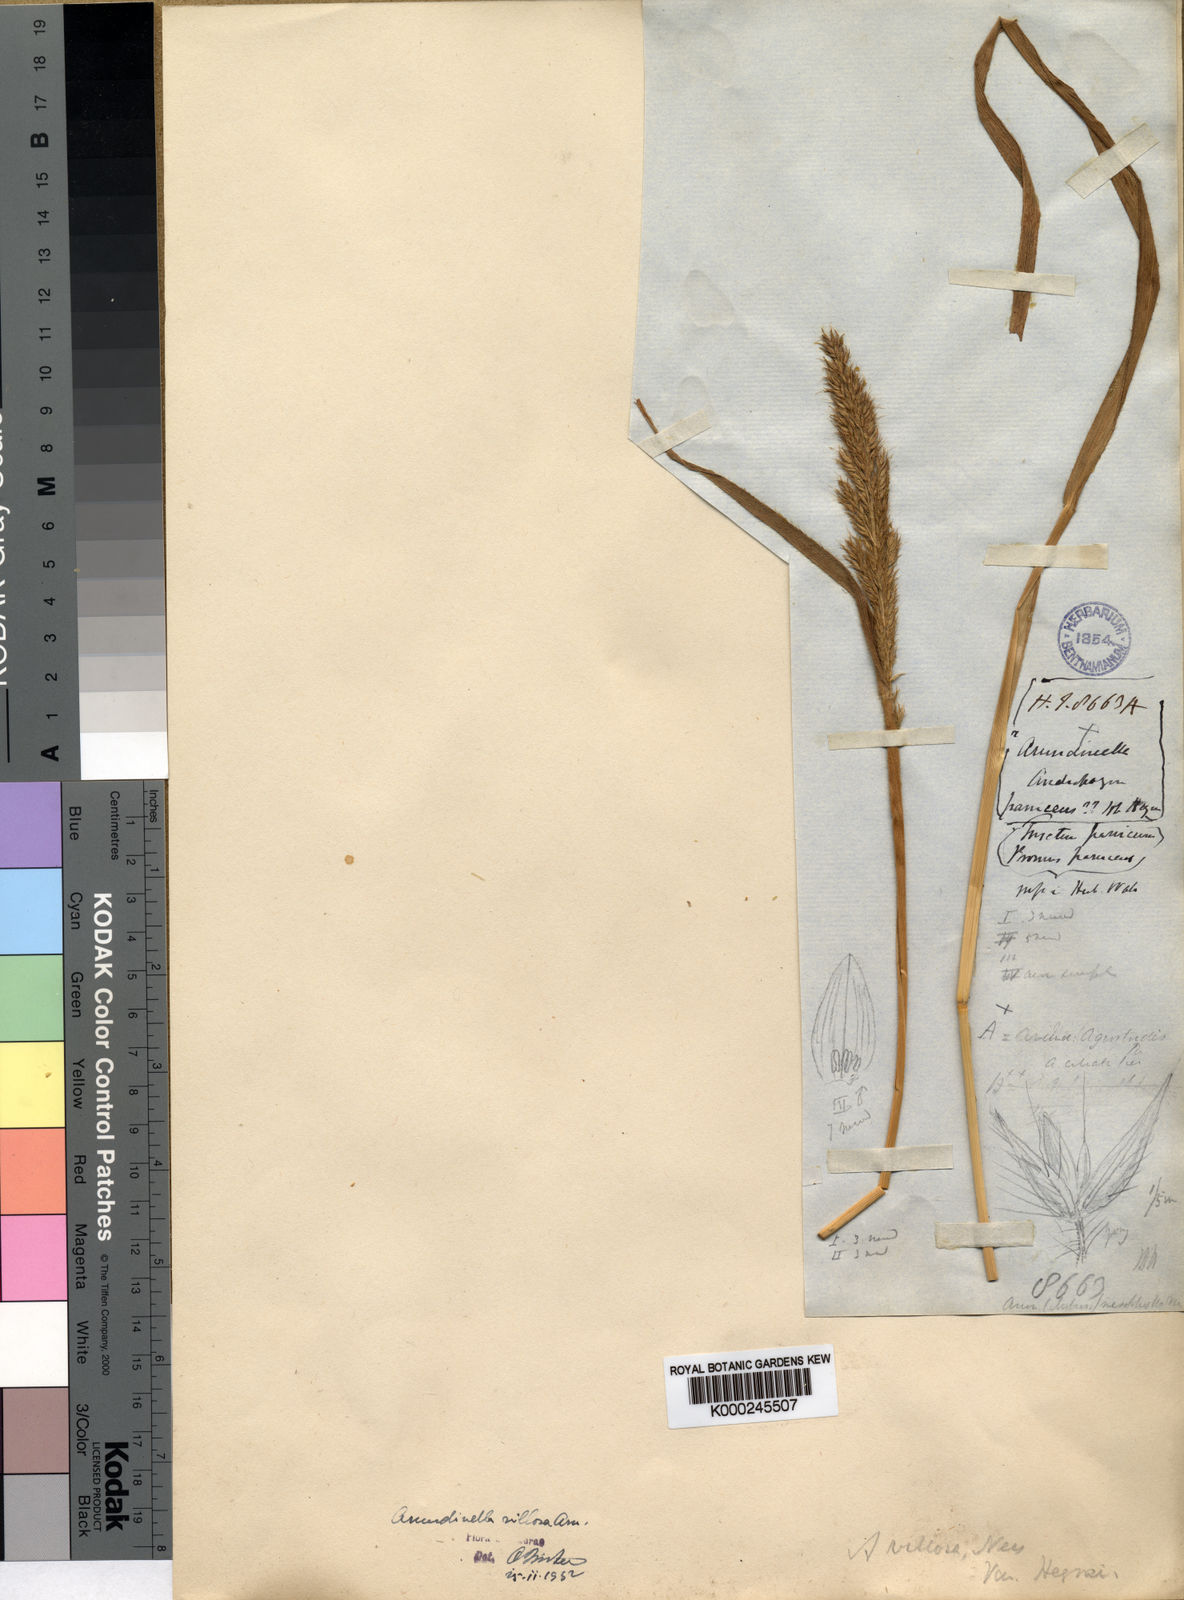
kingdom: Plantae
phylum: Tracheophyta
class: Liliopsida
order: Poales
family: Poaceae
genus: Arundinella
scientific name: Arundinella vaginata
